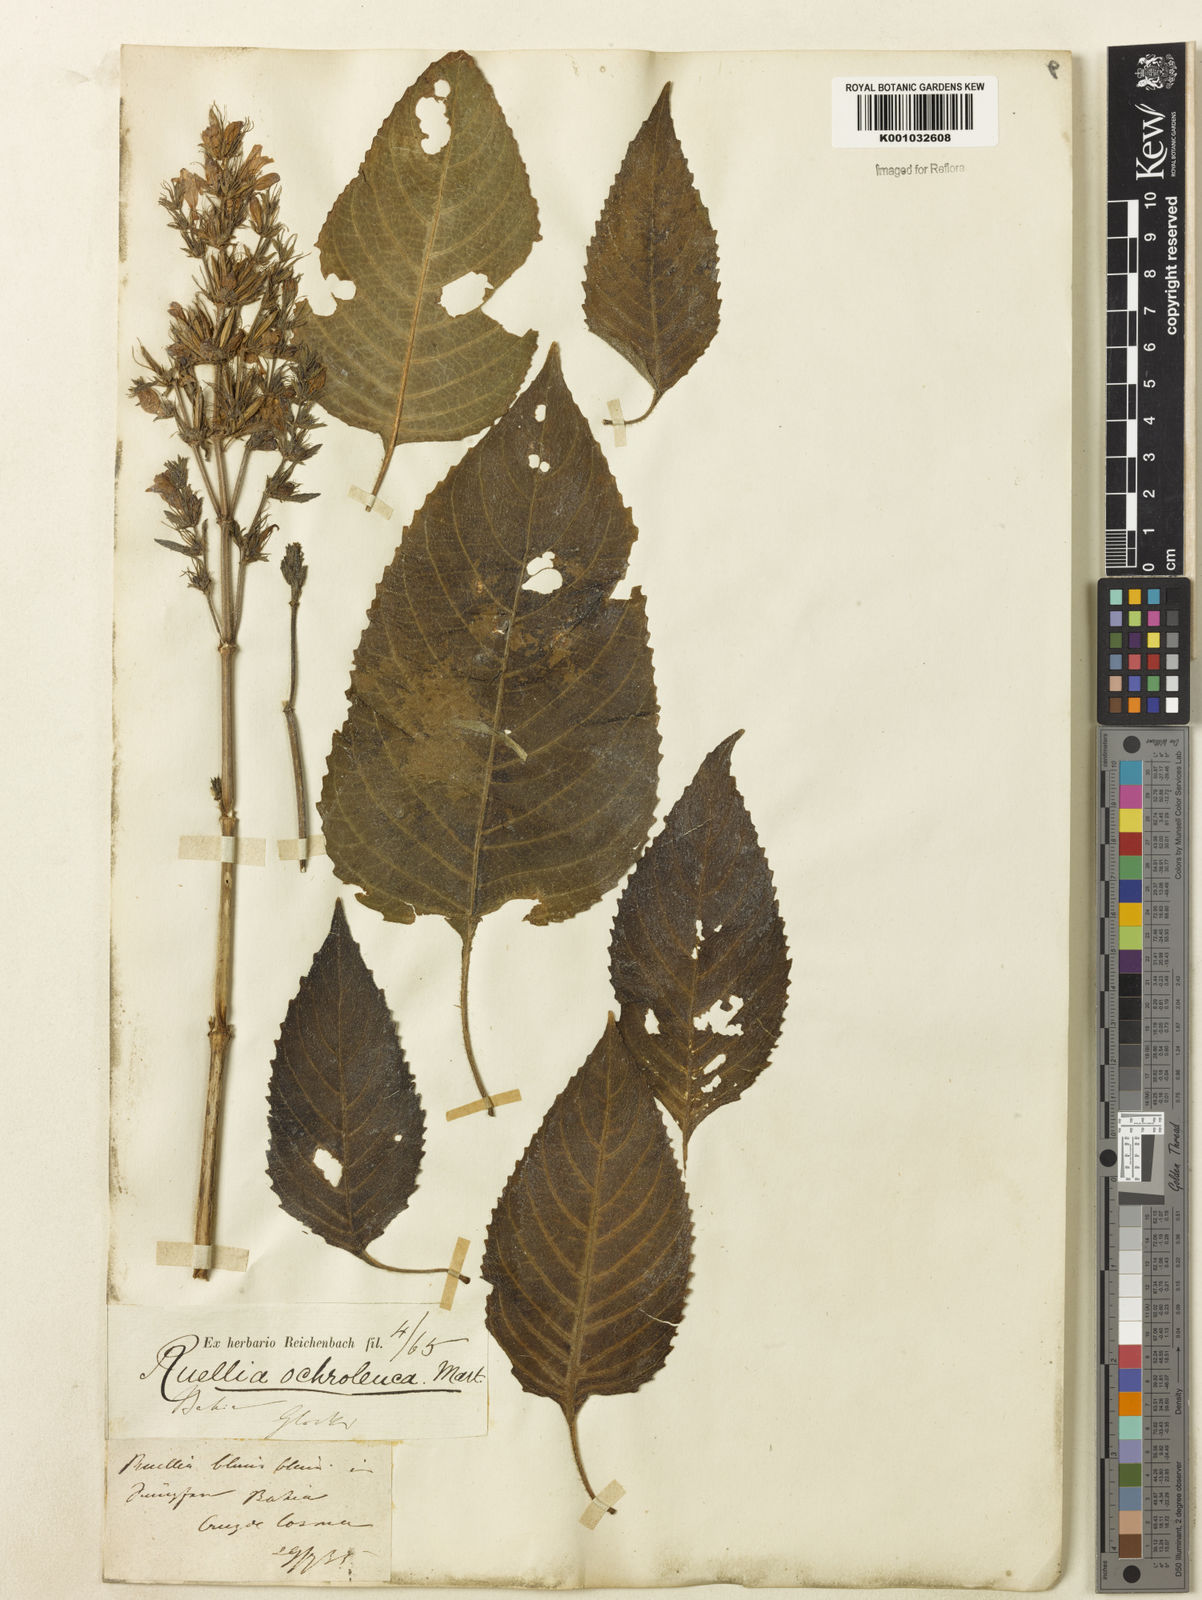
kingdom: Plantae
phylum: Tracheophyta
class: Magnoliopsida
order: Lamiales
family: Acanthaceae
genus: Ruellia
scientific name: Ruellia
